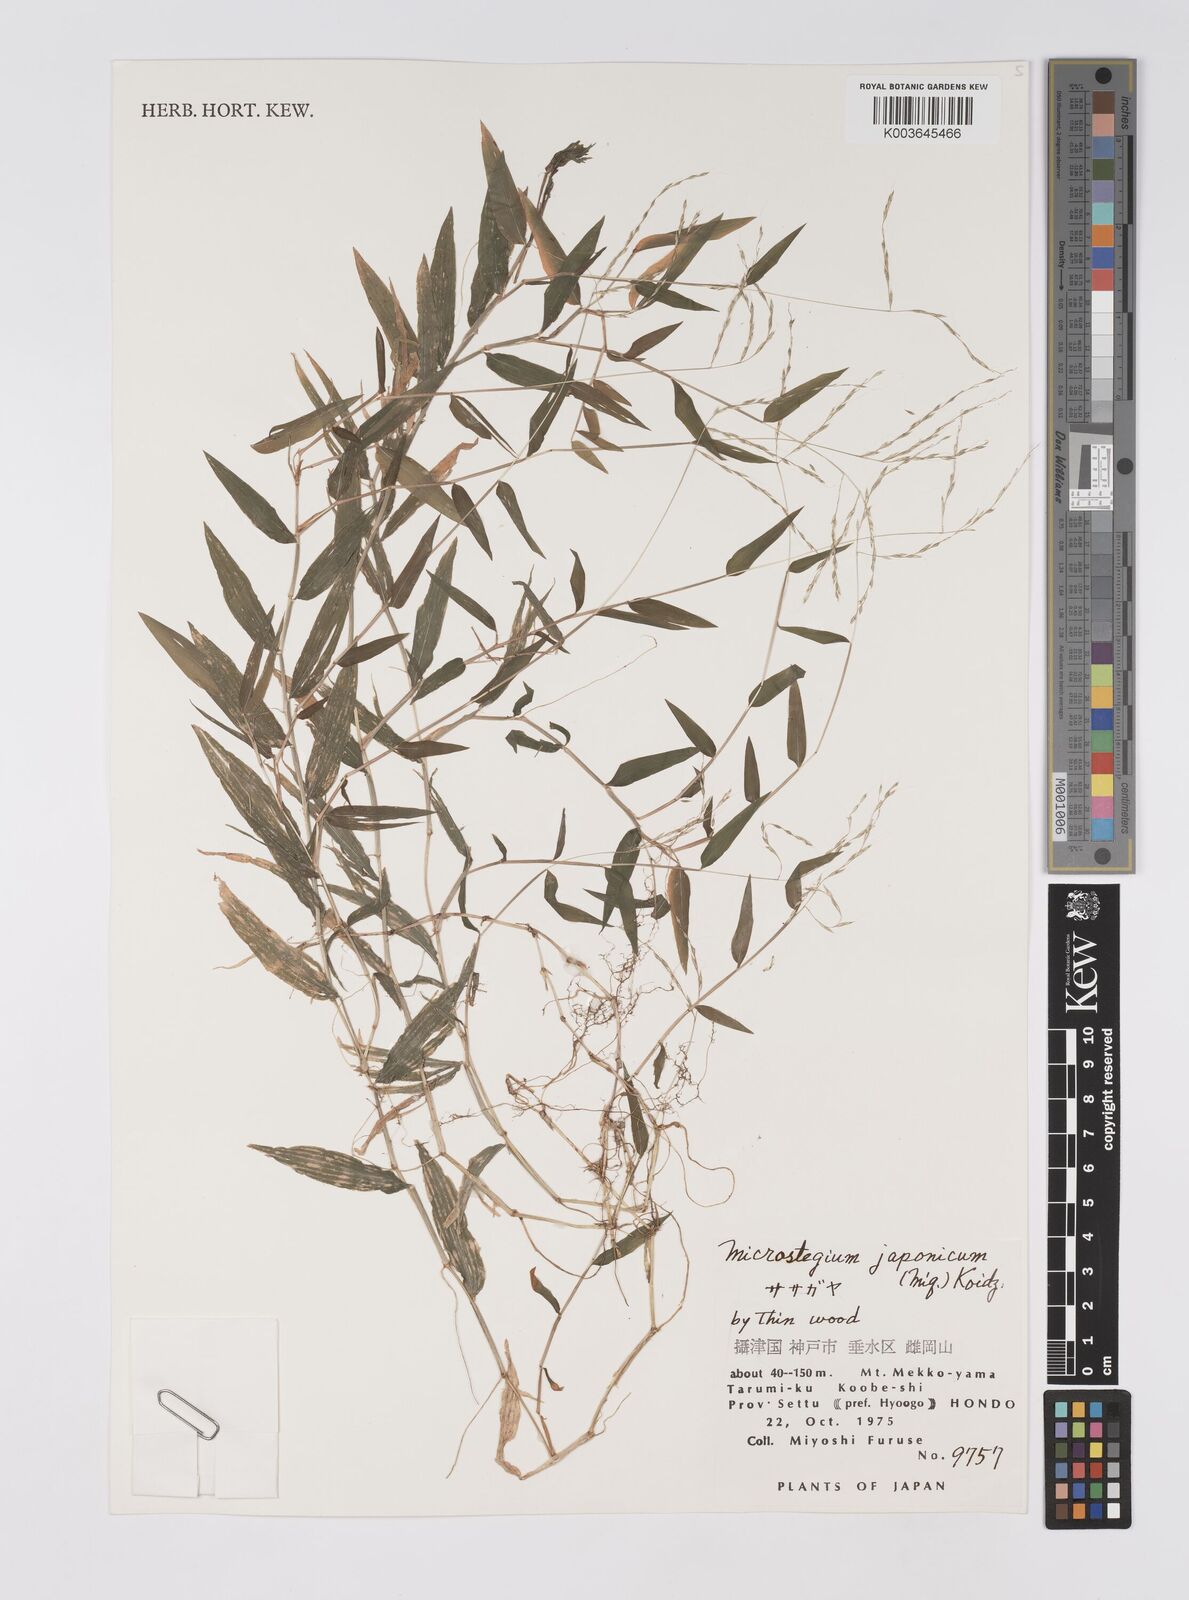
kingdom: Plantae
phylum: Tracheophyta
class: Liliopsida
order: Poales
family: Poaceae
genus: Microstegium
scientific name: Microstegium japonicum
